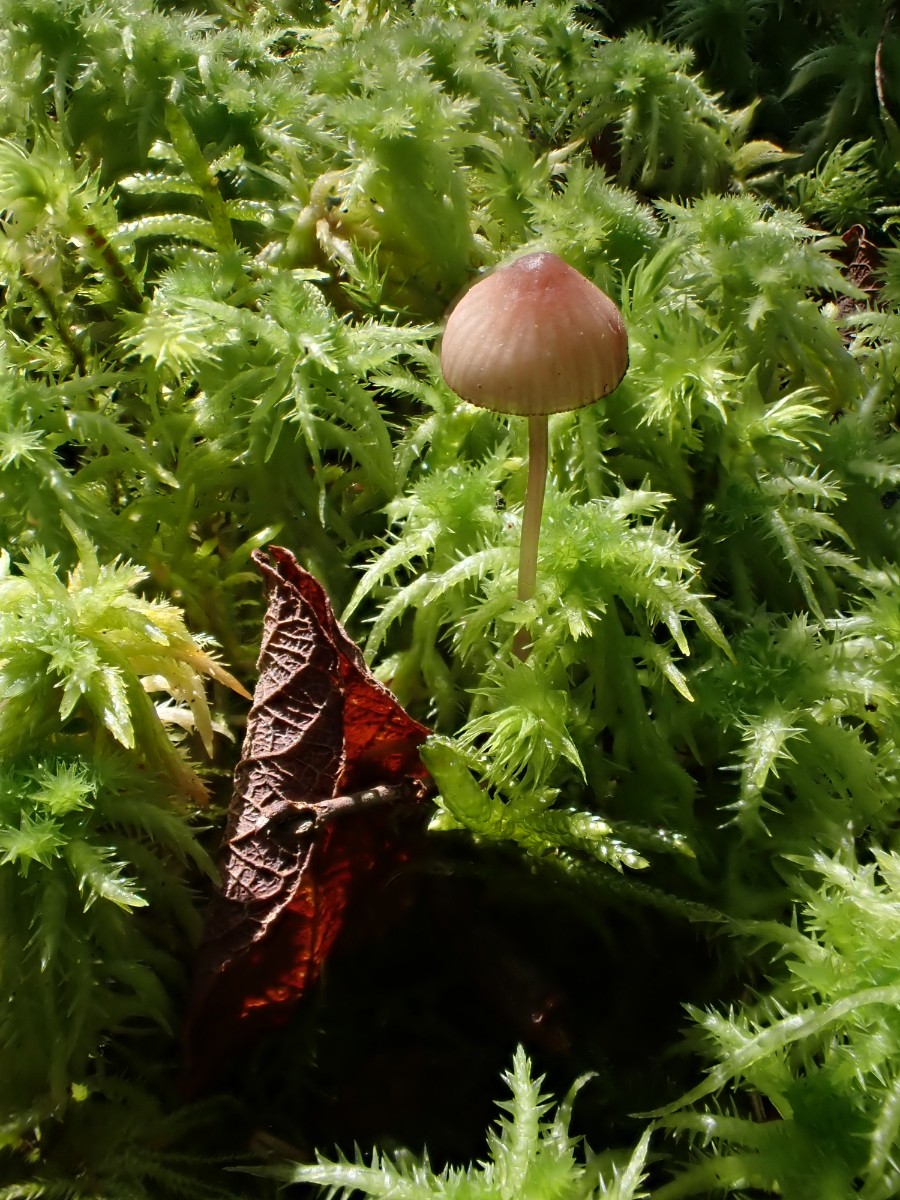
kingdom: Fungi
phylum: Basidiomycota
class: Agaricomycetes
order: Agaricales
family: Mycenaceae
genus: Mycena
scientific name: Mycena sanguinolenta
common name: rødmælket huesvamp
